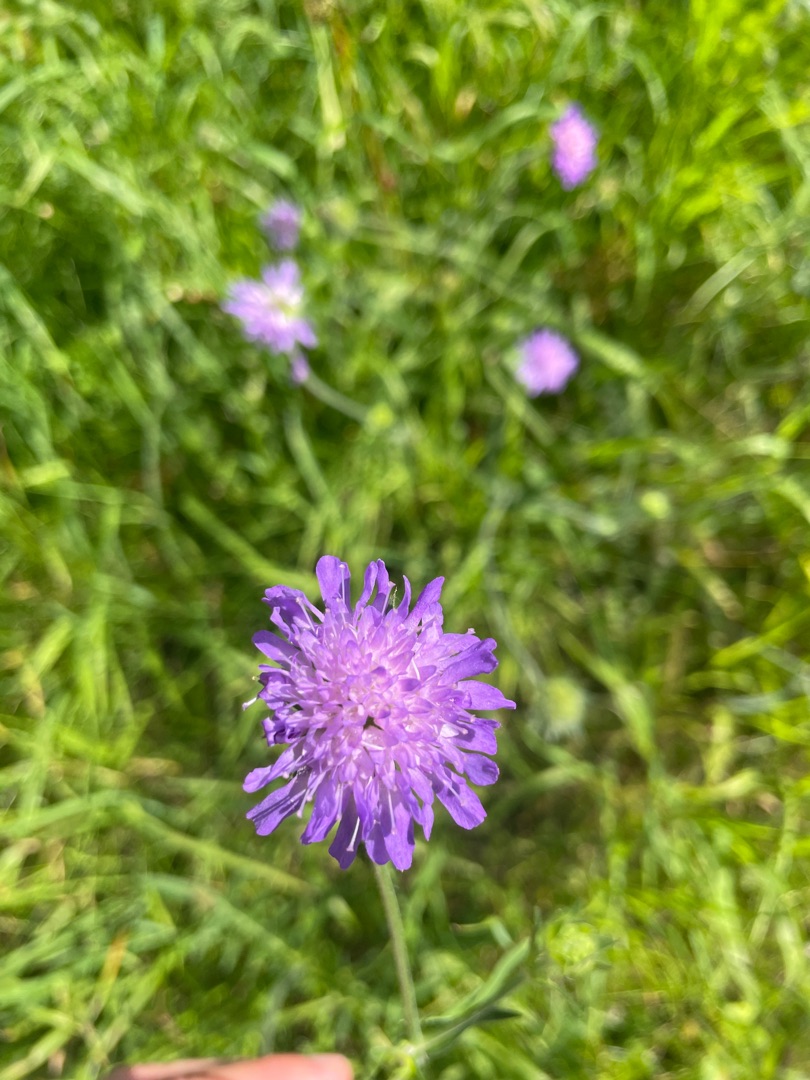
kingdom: Plantae
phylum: Tracheophyta
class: Magnoliopsida
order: Dipsacales
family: Caprifoliaceae
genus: Knautia
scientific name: Knautia arvensis
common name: Blåhat
